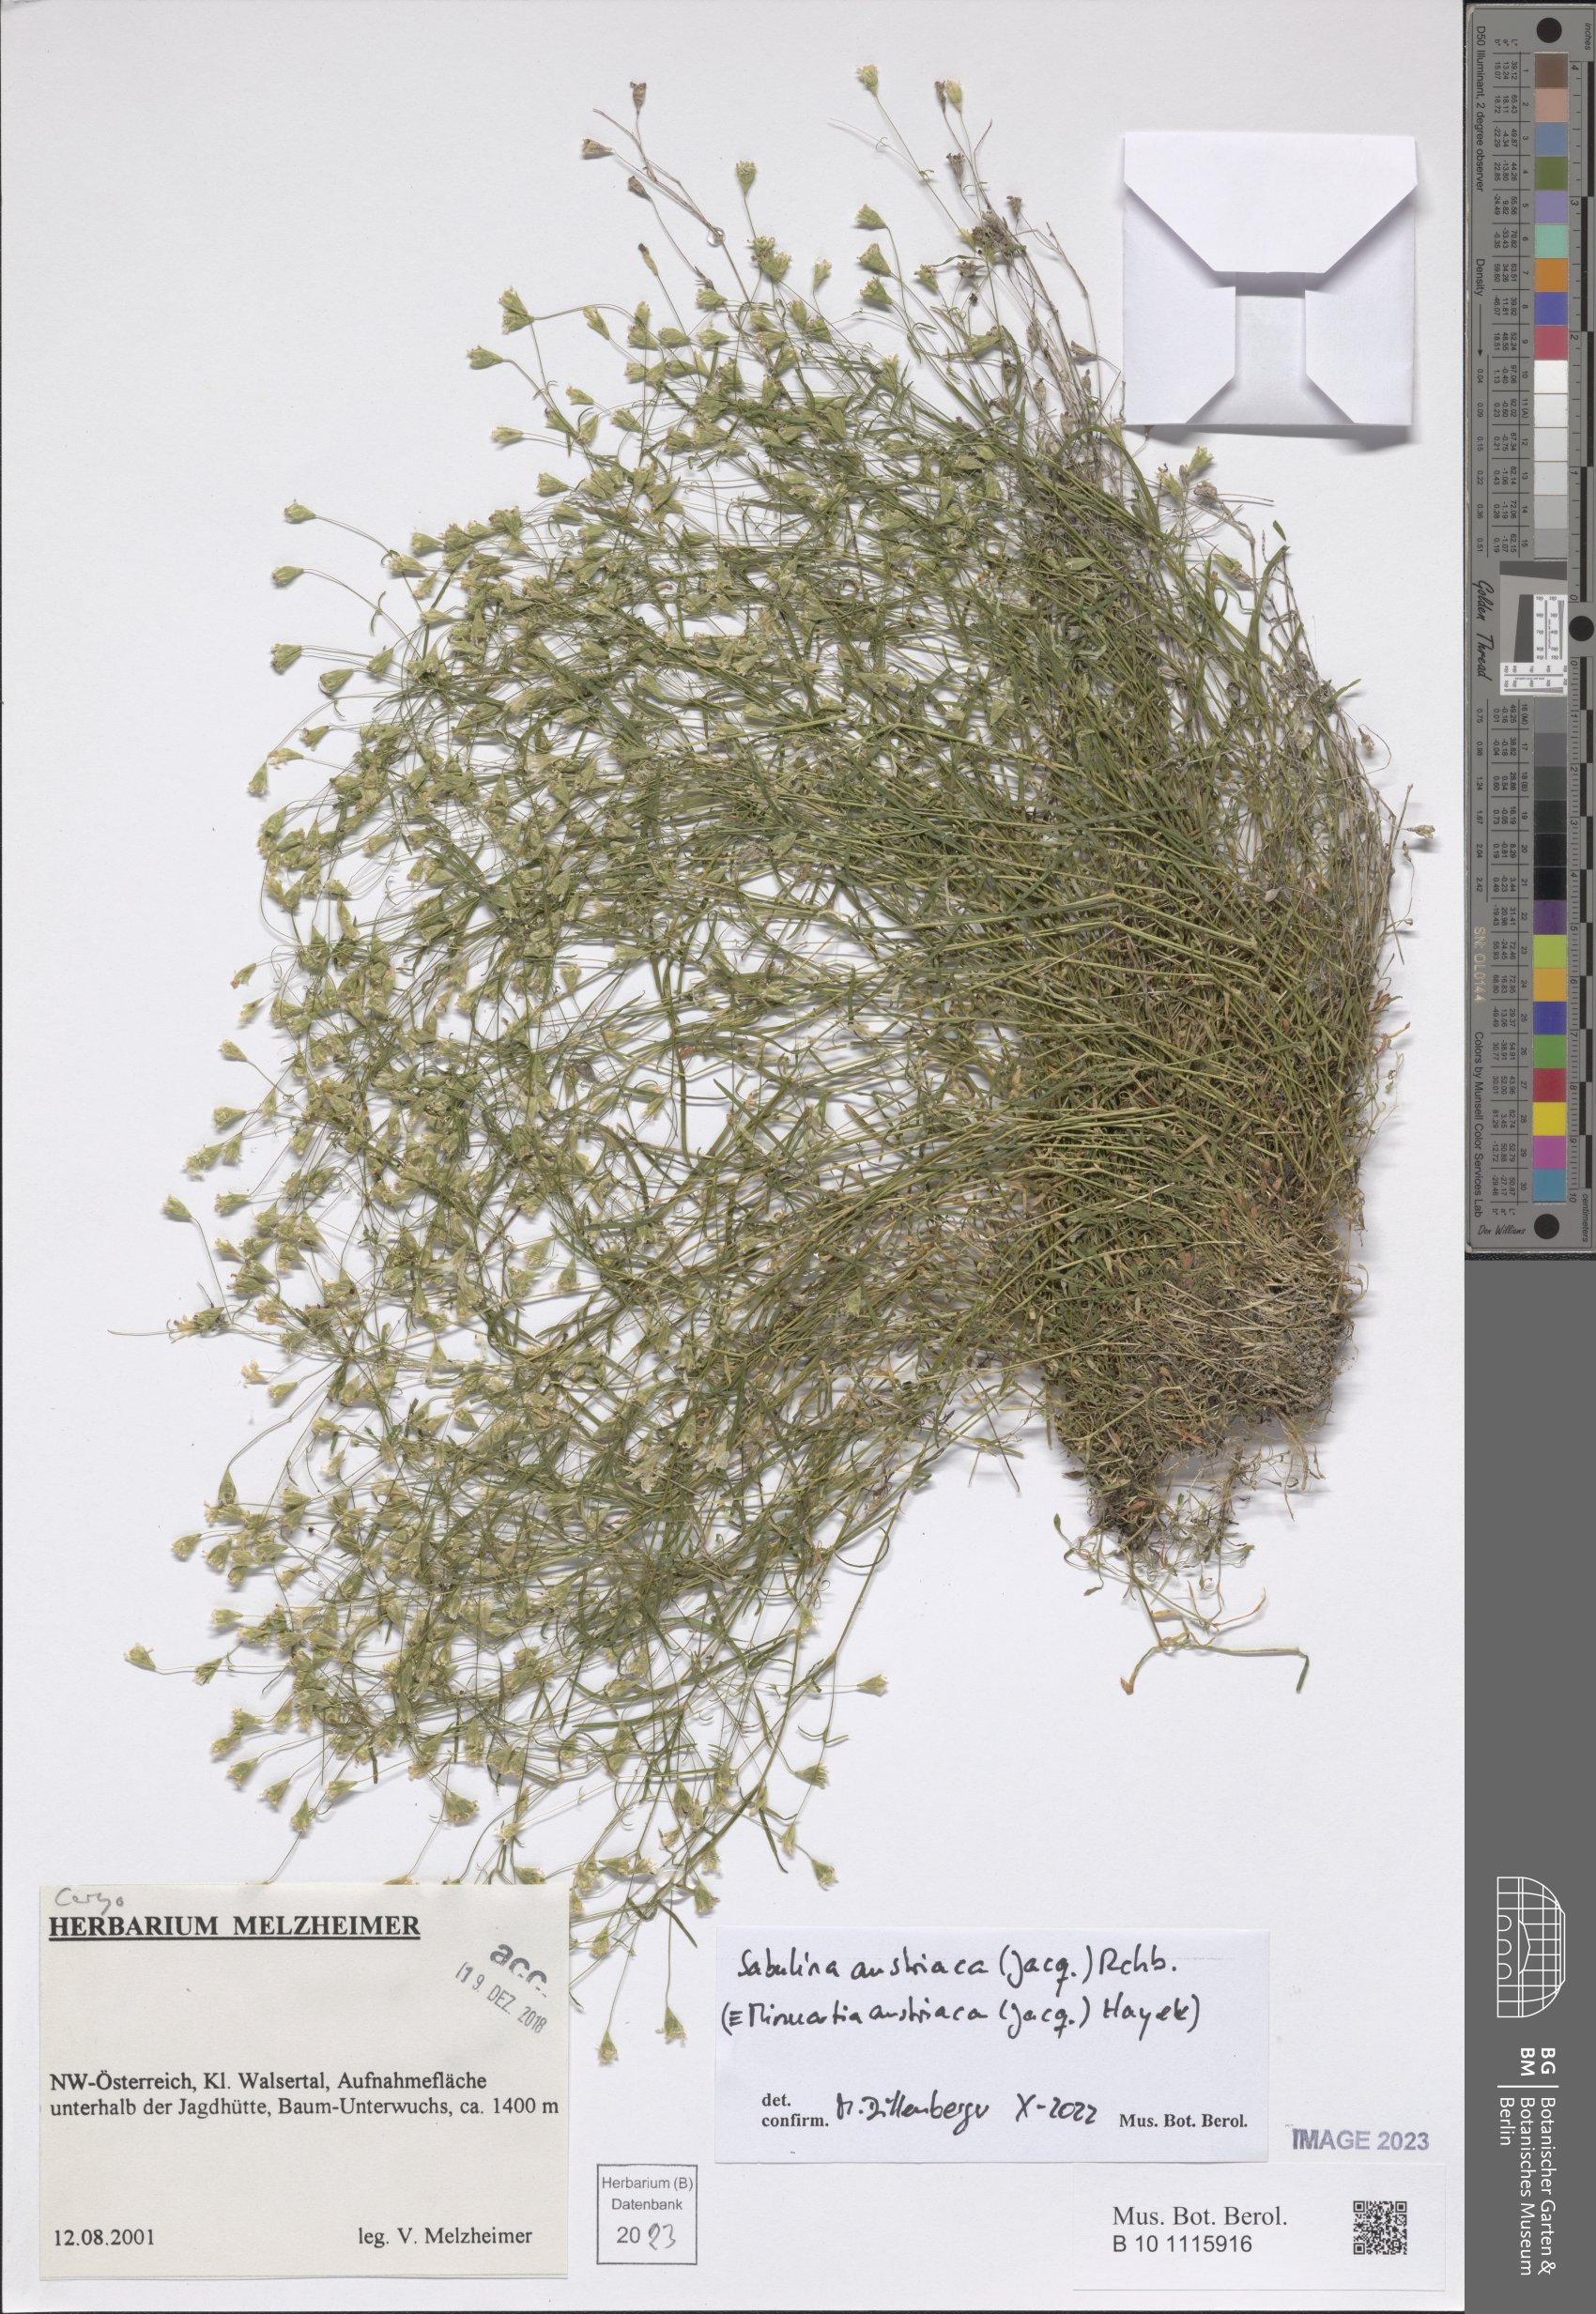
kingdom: Plantae
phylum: Tracheophyta
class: Magnoliopsida
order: Caryophyllales
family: Caryophyllaceae
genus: Sabulina
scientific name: Sabulina austriaca
